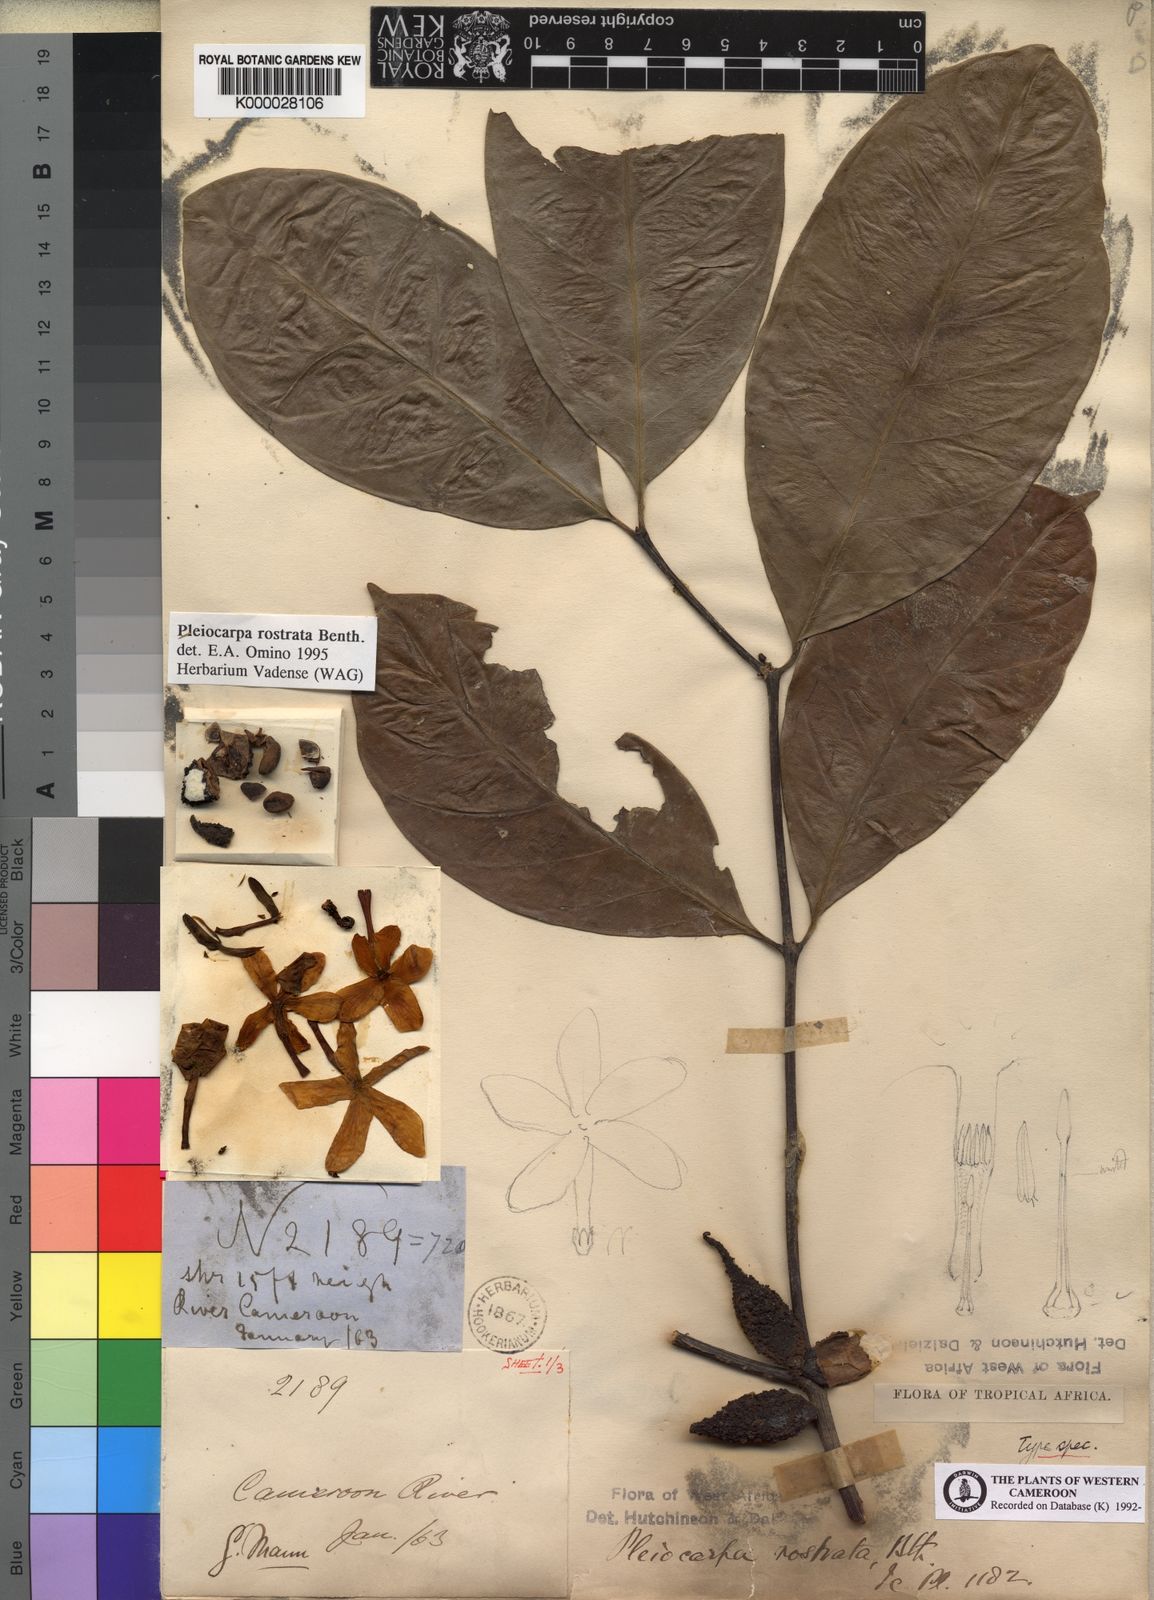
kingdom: Plantae
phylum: Tracheophyta
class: Magnoliopsida
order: Gentianales
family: Apocynaceae
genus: Pleiocarpa
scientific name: Pleiocarpa rostrata
